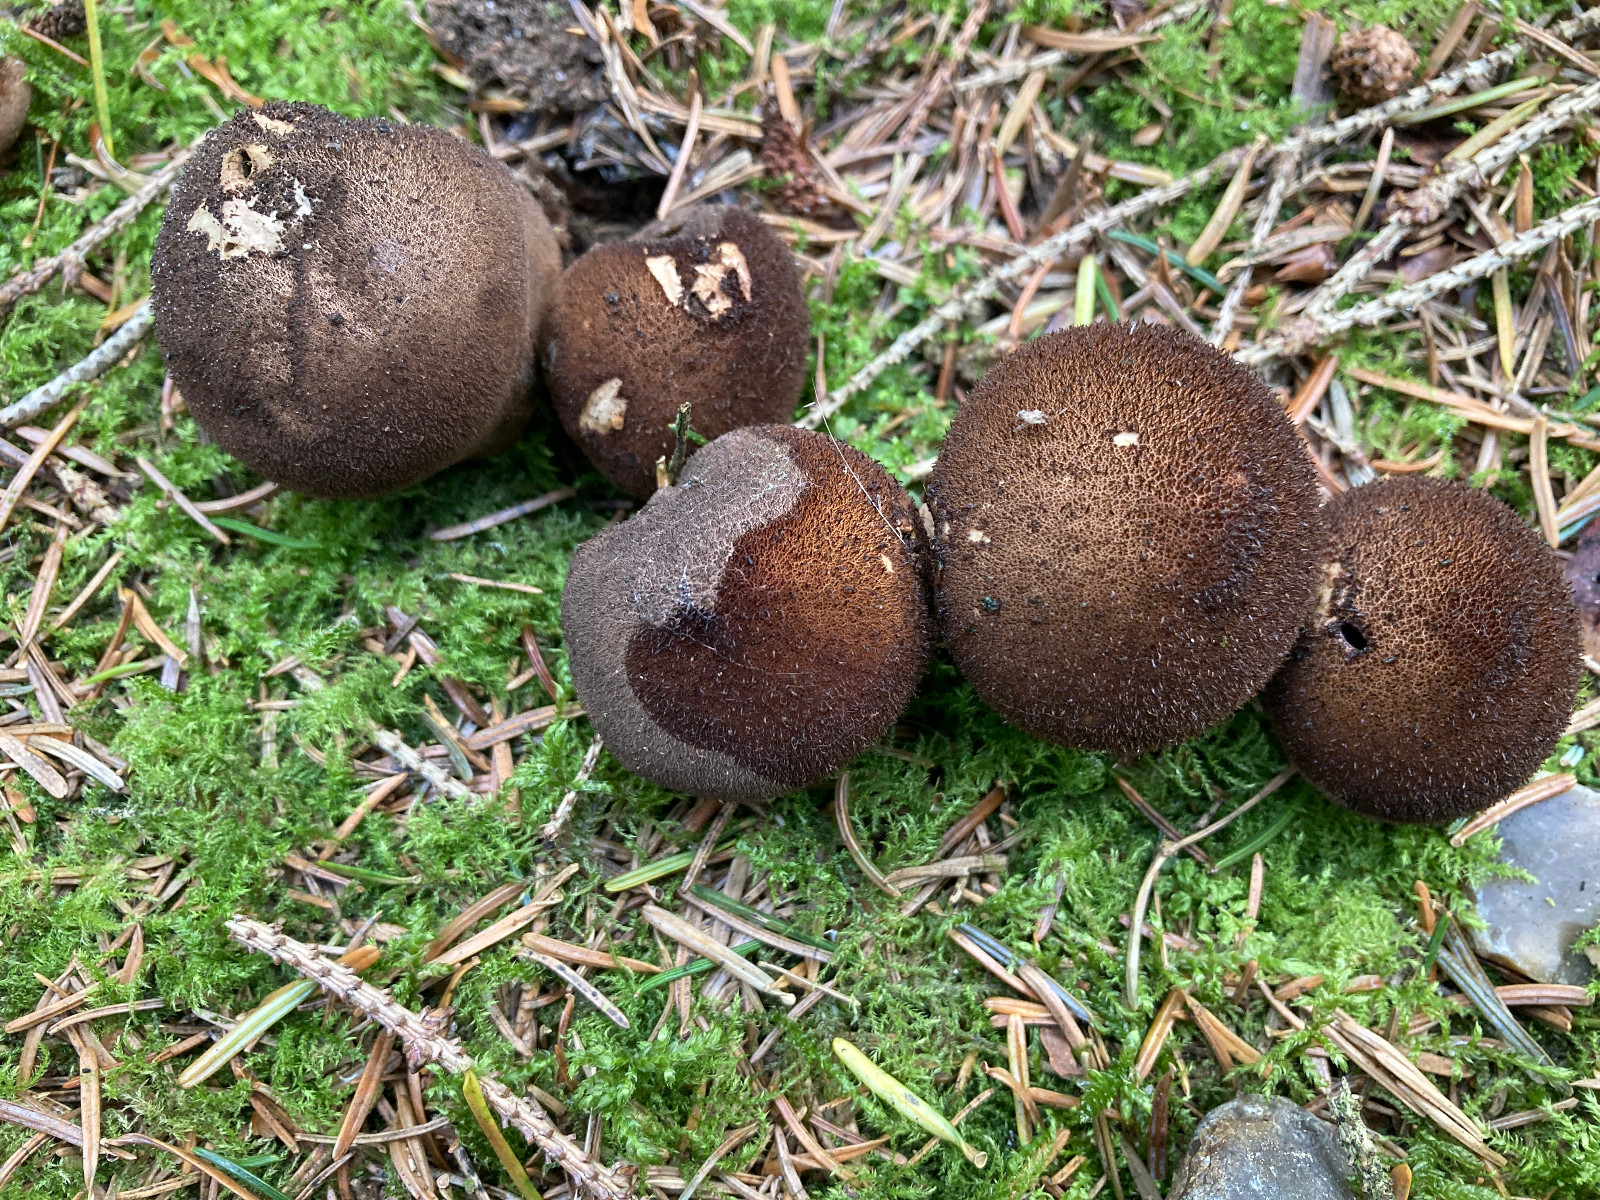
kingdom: Fungi
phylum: Basidiomycota
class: Agaricomycetes
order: Agaricales
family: Lycoperdaceae
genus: Lycoperdon
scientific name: Lycoperdon nigrescens
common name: sortagtig støvbold
